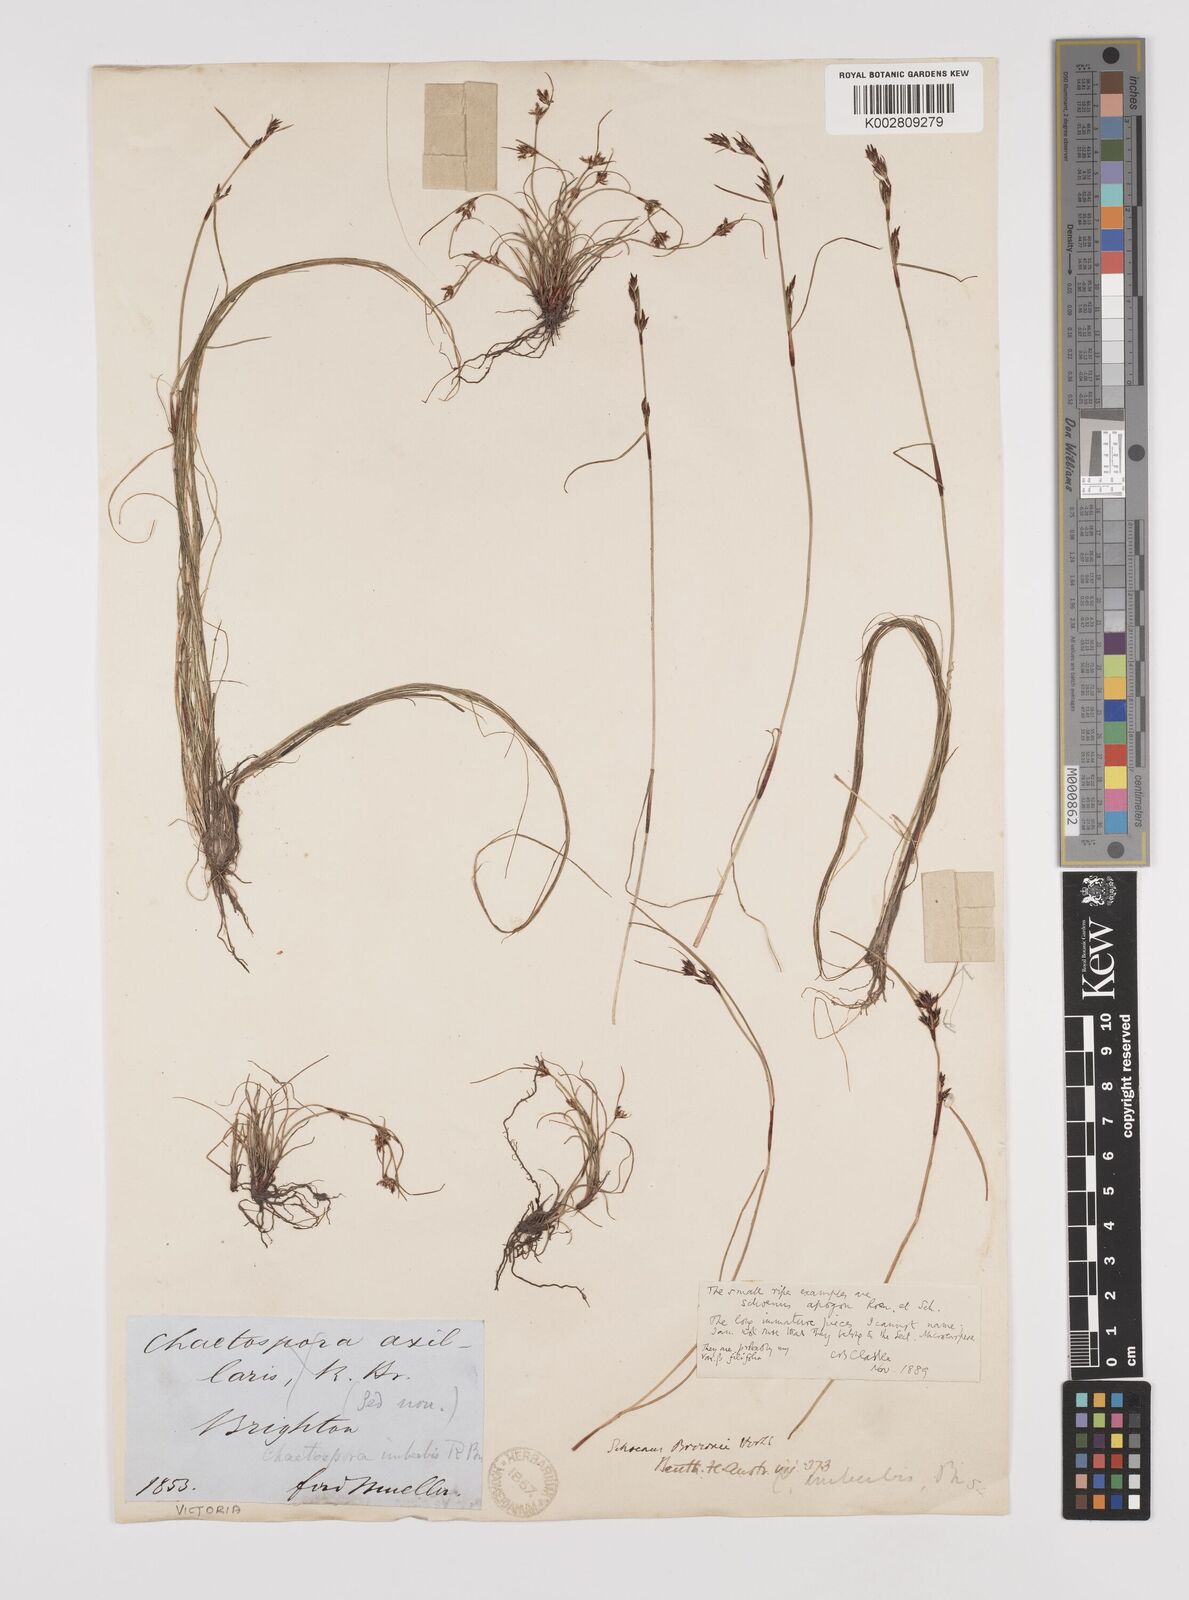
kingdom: Plantae
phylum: Tracheophyta
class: Liliopsida
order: Poales
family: Cyperaceae
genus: Schoenus
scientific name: Schoenus apogon
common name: Smooth bogrush
